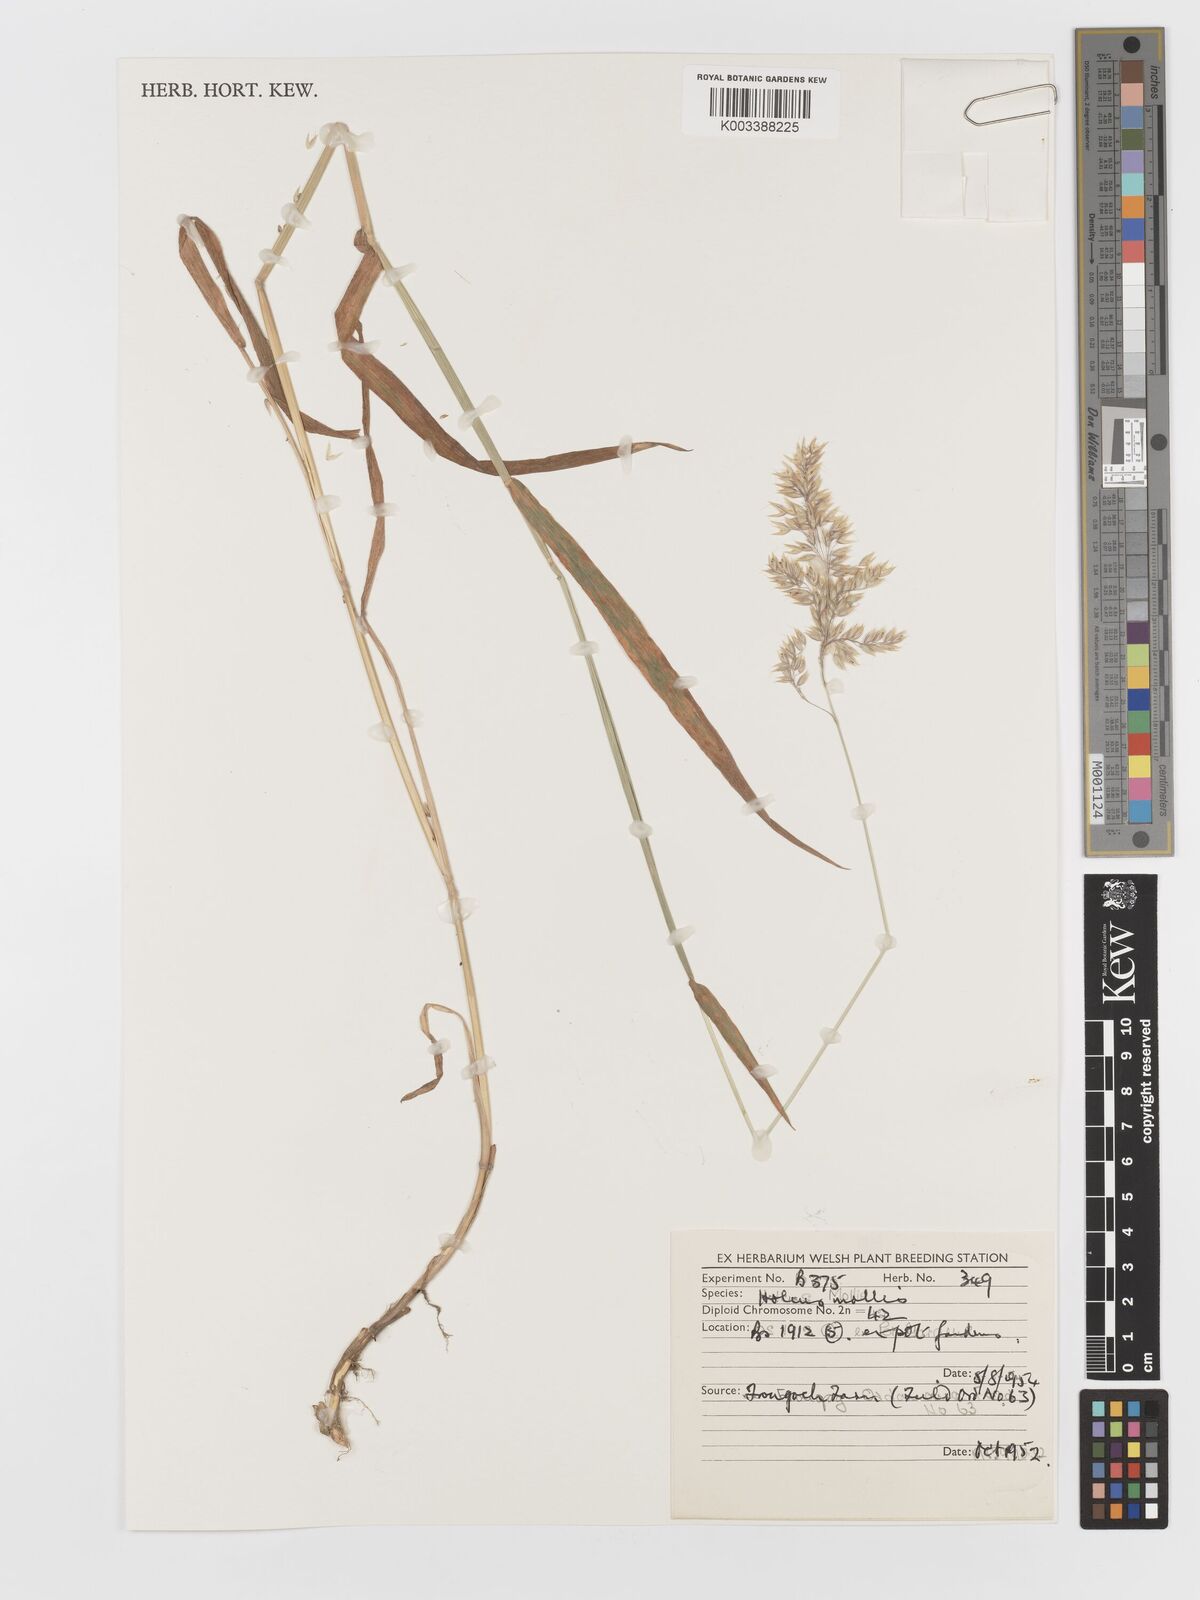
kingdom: Plantae
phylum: Tracheophyta
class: Liliopsida
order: Poales
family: Poaceae
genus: Holcus
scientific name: Holcus mollis
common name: Creeping velvetgrass
